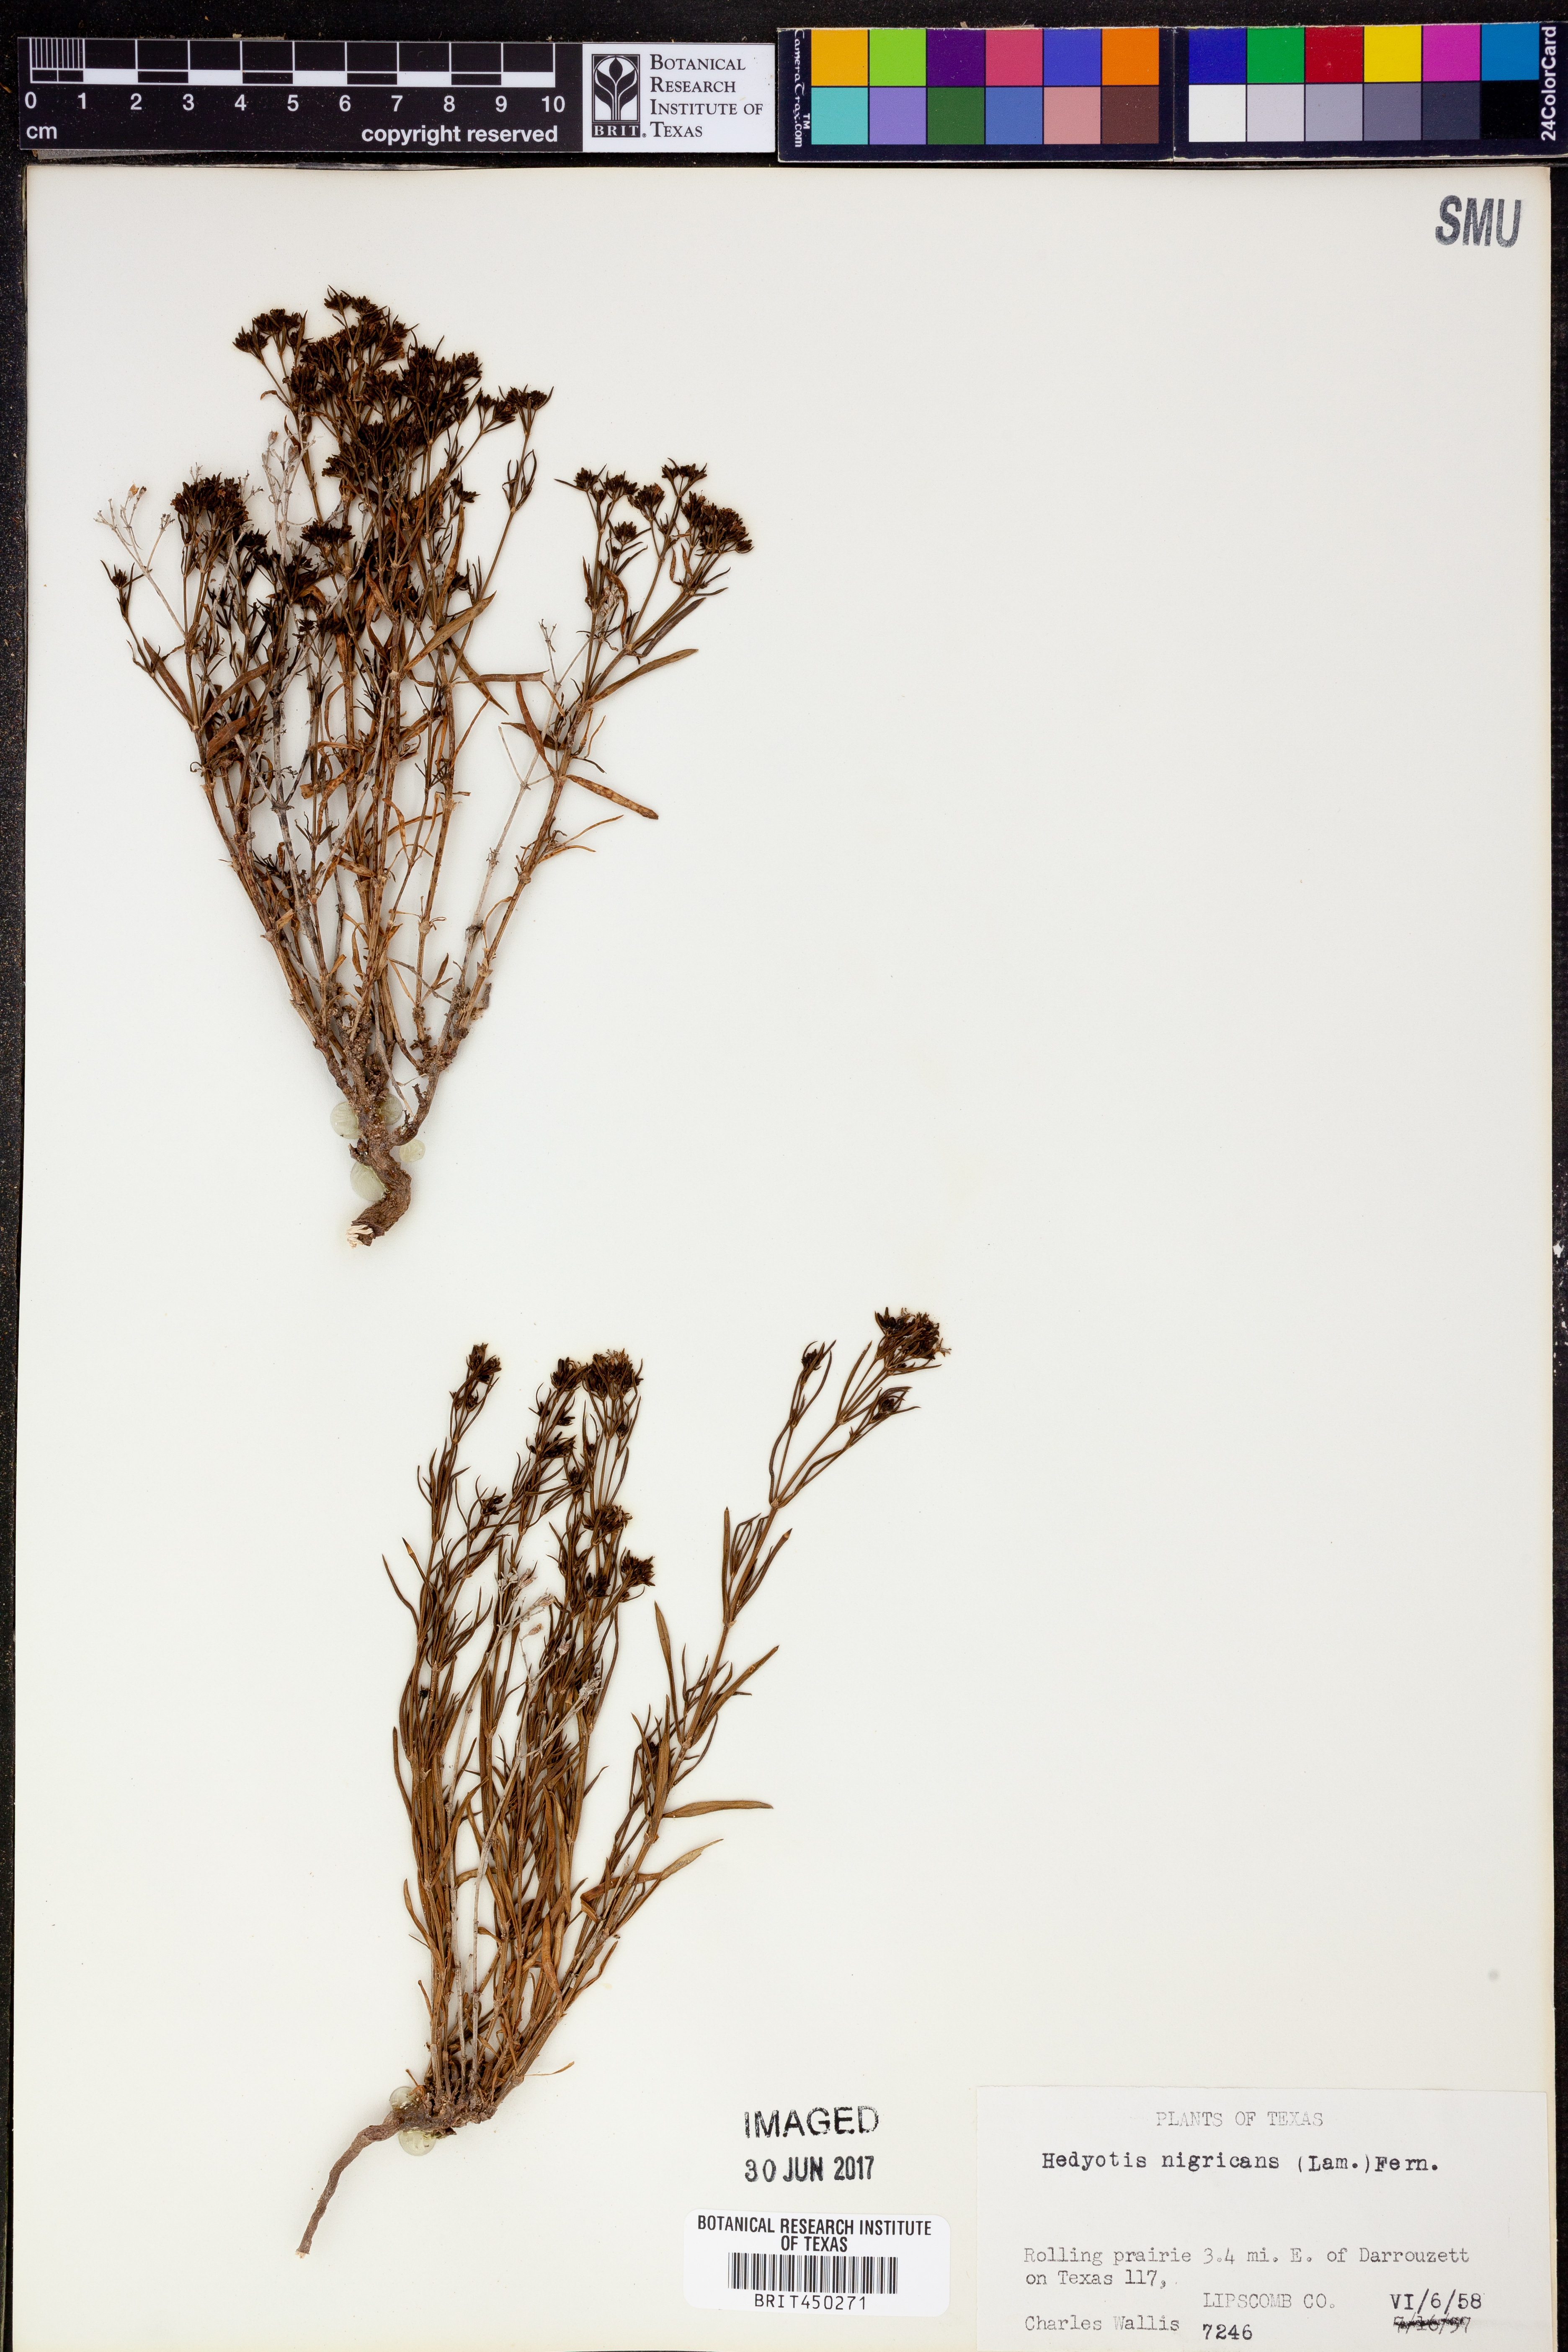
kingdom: Plantae
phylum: Tracheophyta
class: Magnoliopsida
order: Gentianales
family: Rubiaceae
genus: Stenaria
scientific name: Stenaria nigricans
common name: Diamondflowers
